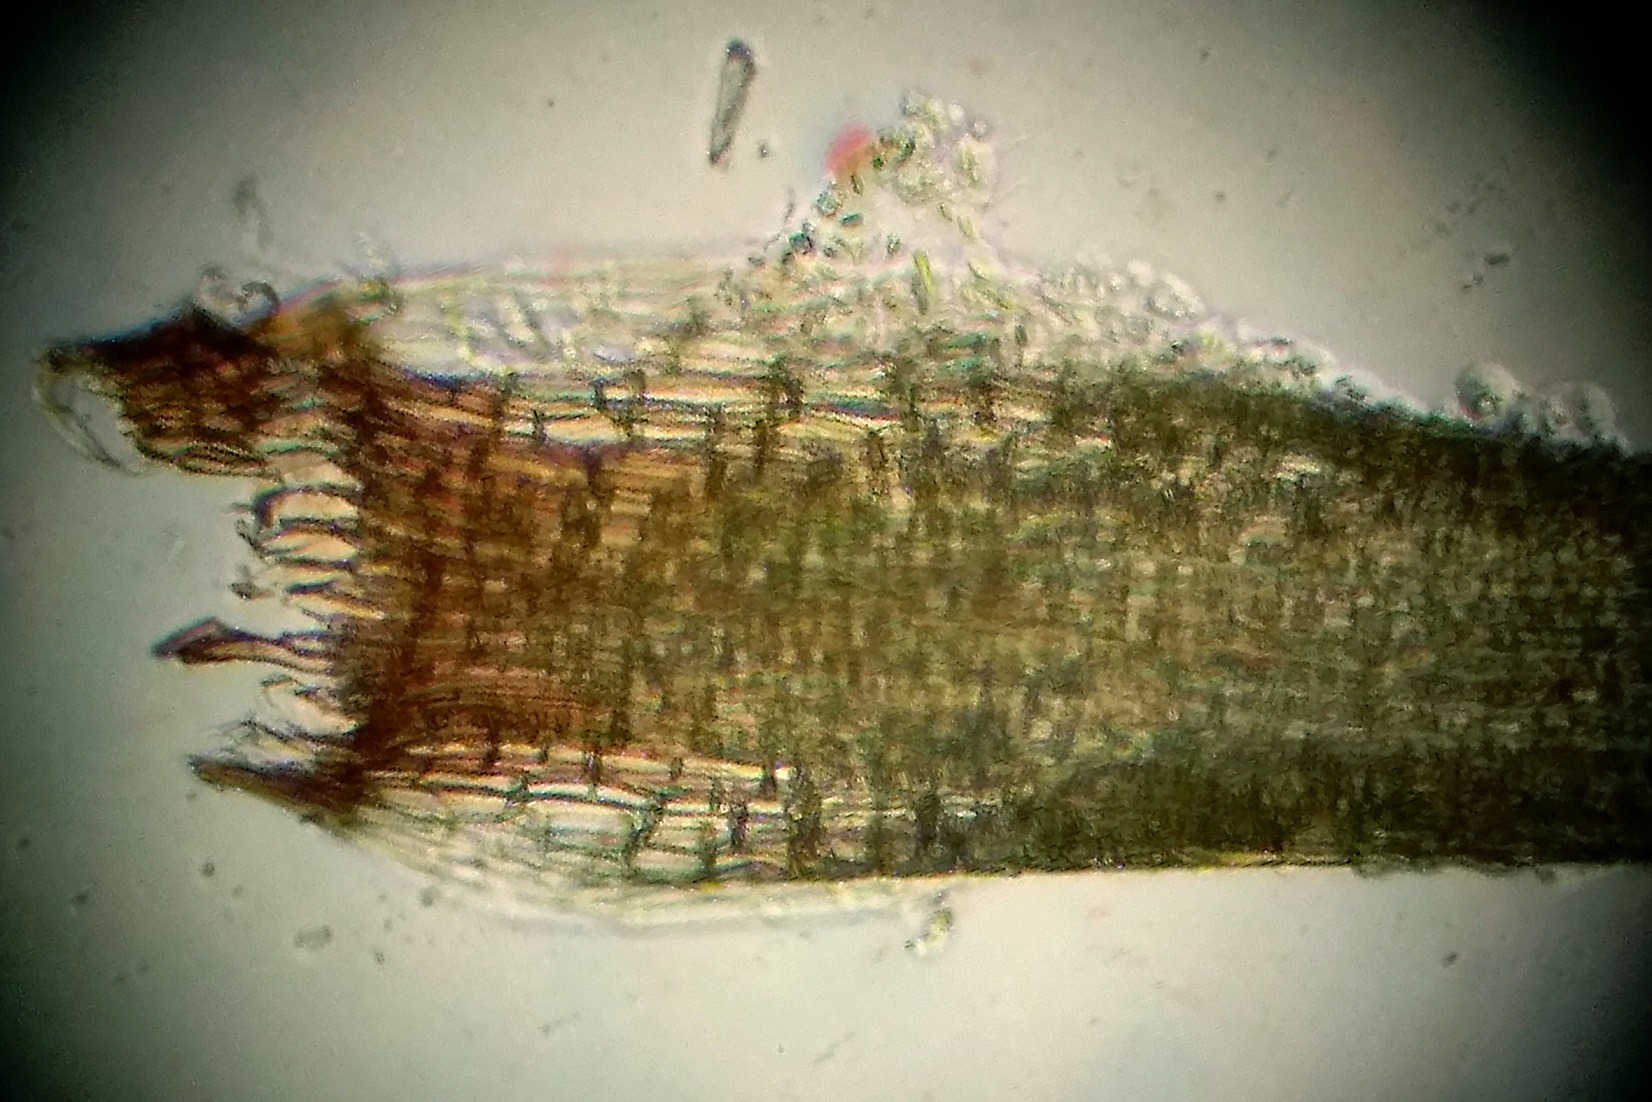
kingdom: Plantae
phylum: Bryophyta
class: Bryopsida
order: Dicranales
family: Leucobryaceae
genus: Campylopus
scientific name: Campylopus pyriformis
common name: Almindelig bredribbe
